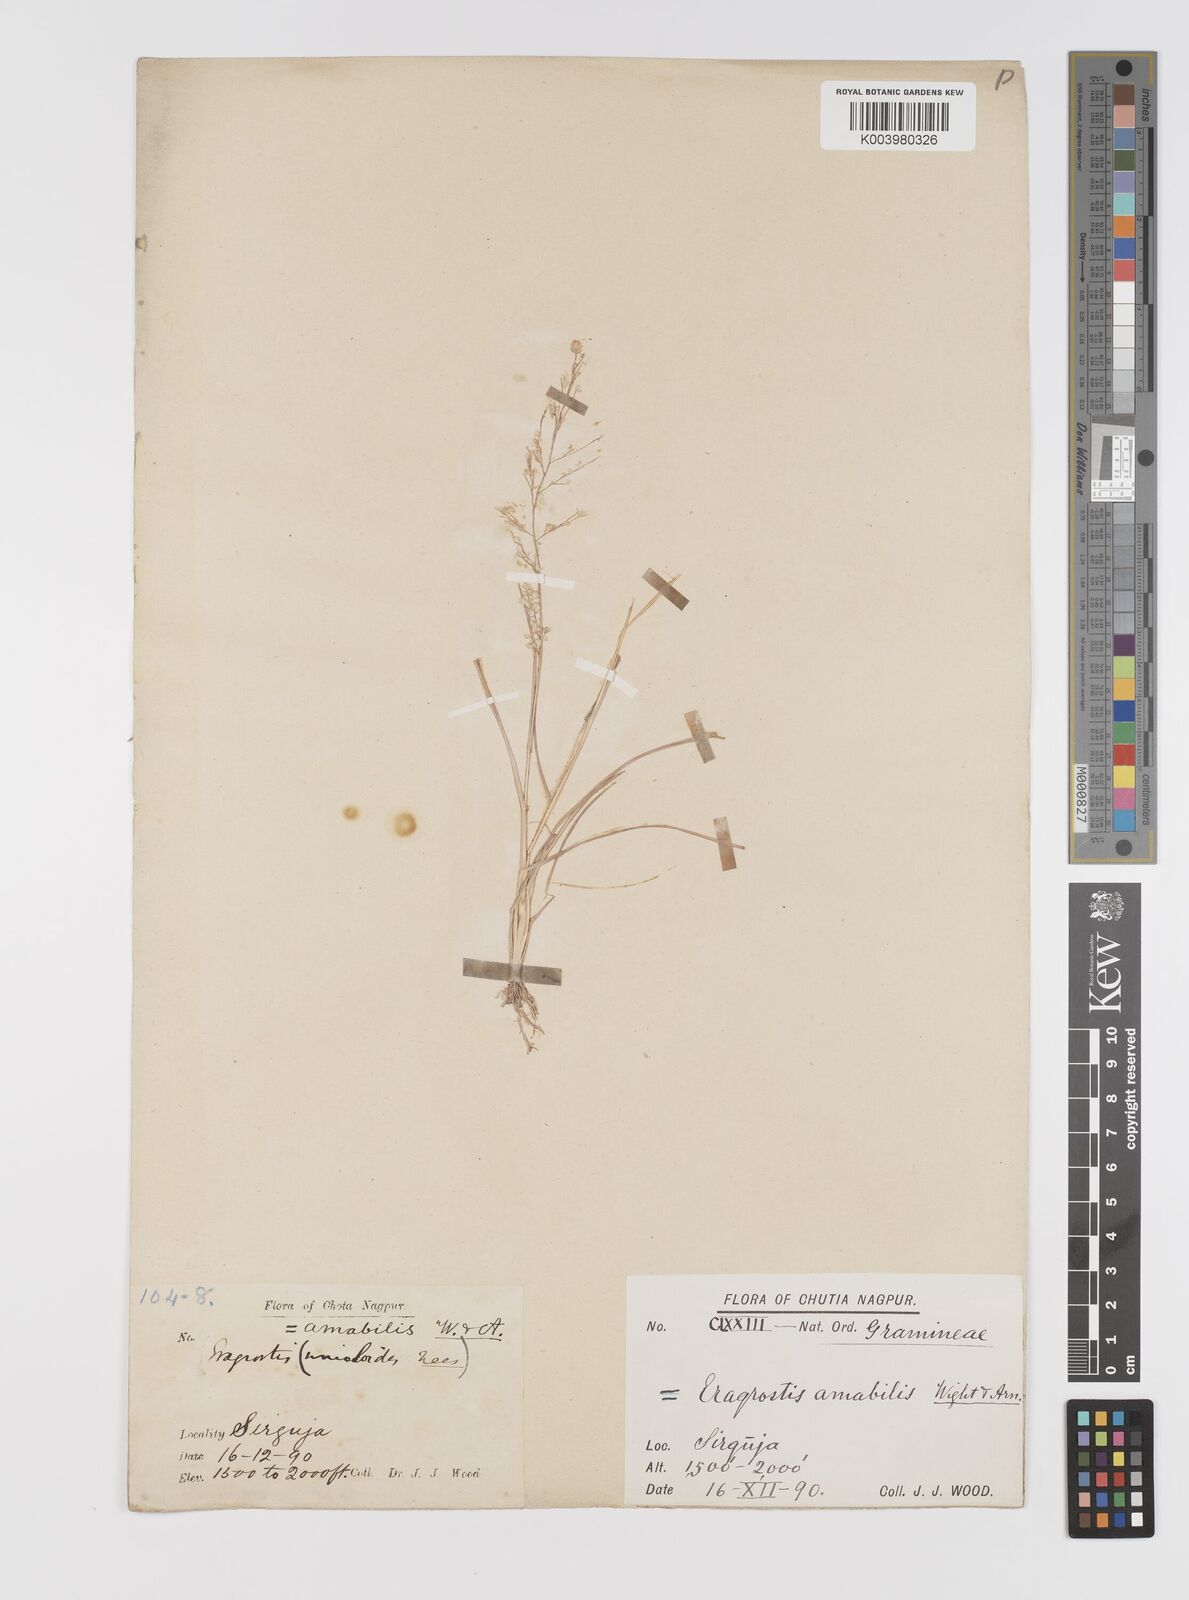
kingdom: Plantae
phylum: Tracheophyta
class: Liliopsida
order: Poales
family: Poaceae
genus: Eragrostis
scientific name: Eragrostis unioloides
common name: Chinese lovegrass
